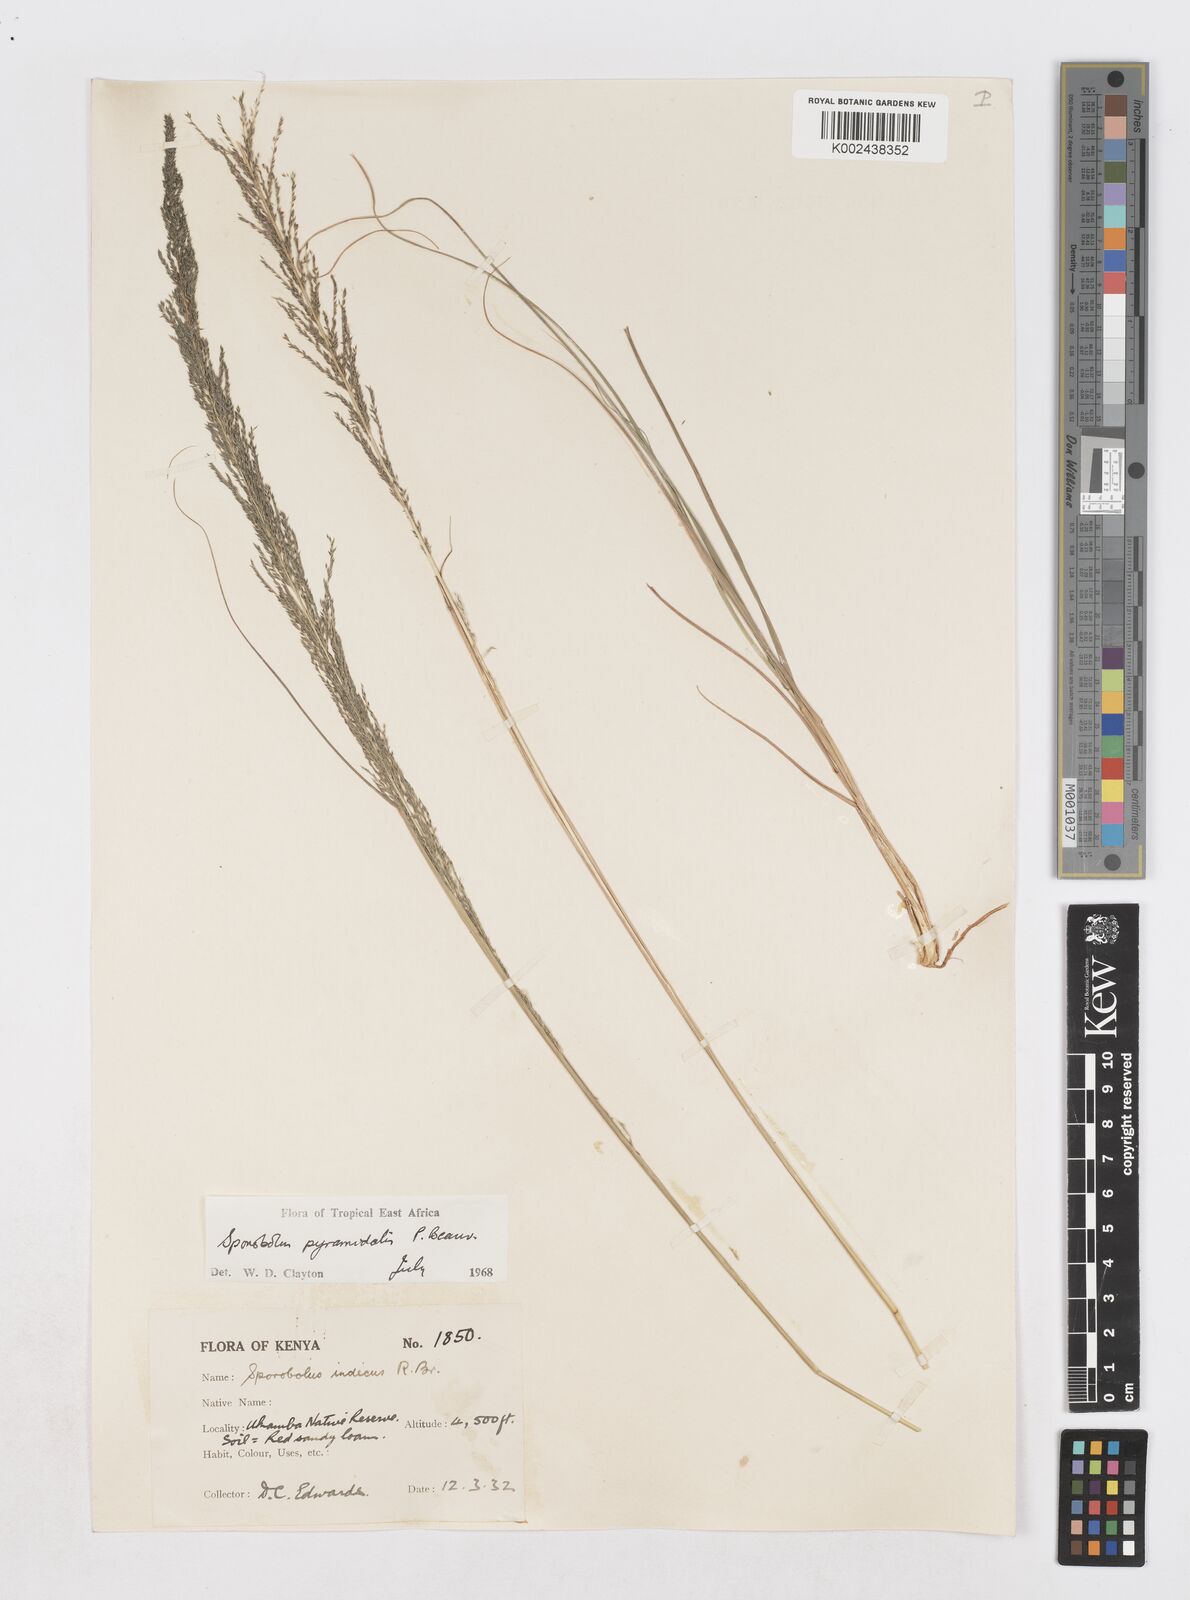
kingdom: Plantae
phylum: Tracheophyta
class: Liliopsida
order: Poales
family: Poaceae
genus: Sporobolus
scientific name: Sporobolus pyramidalis
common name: West indian dropseed
